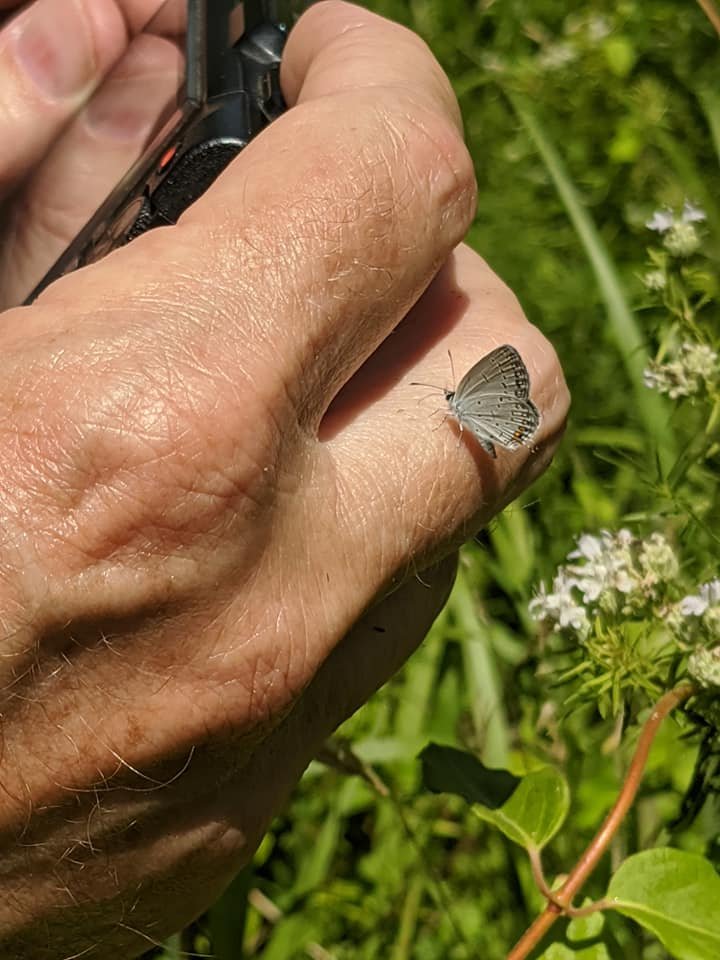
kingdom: Animalia
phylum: Arthropoda
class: Insecta
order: Lepidoptera
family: Lycaenidae
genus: Elkalyce
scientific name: Elkalyce comyntas
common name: Eastern Tailed-Blue
